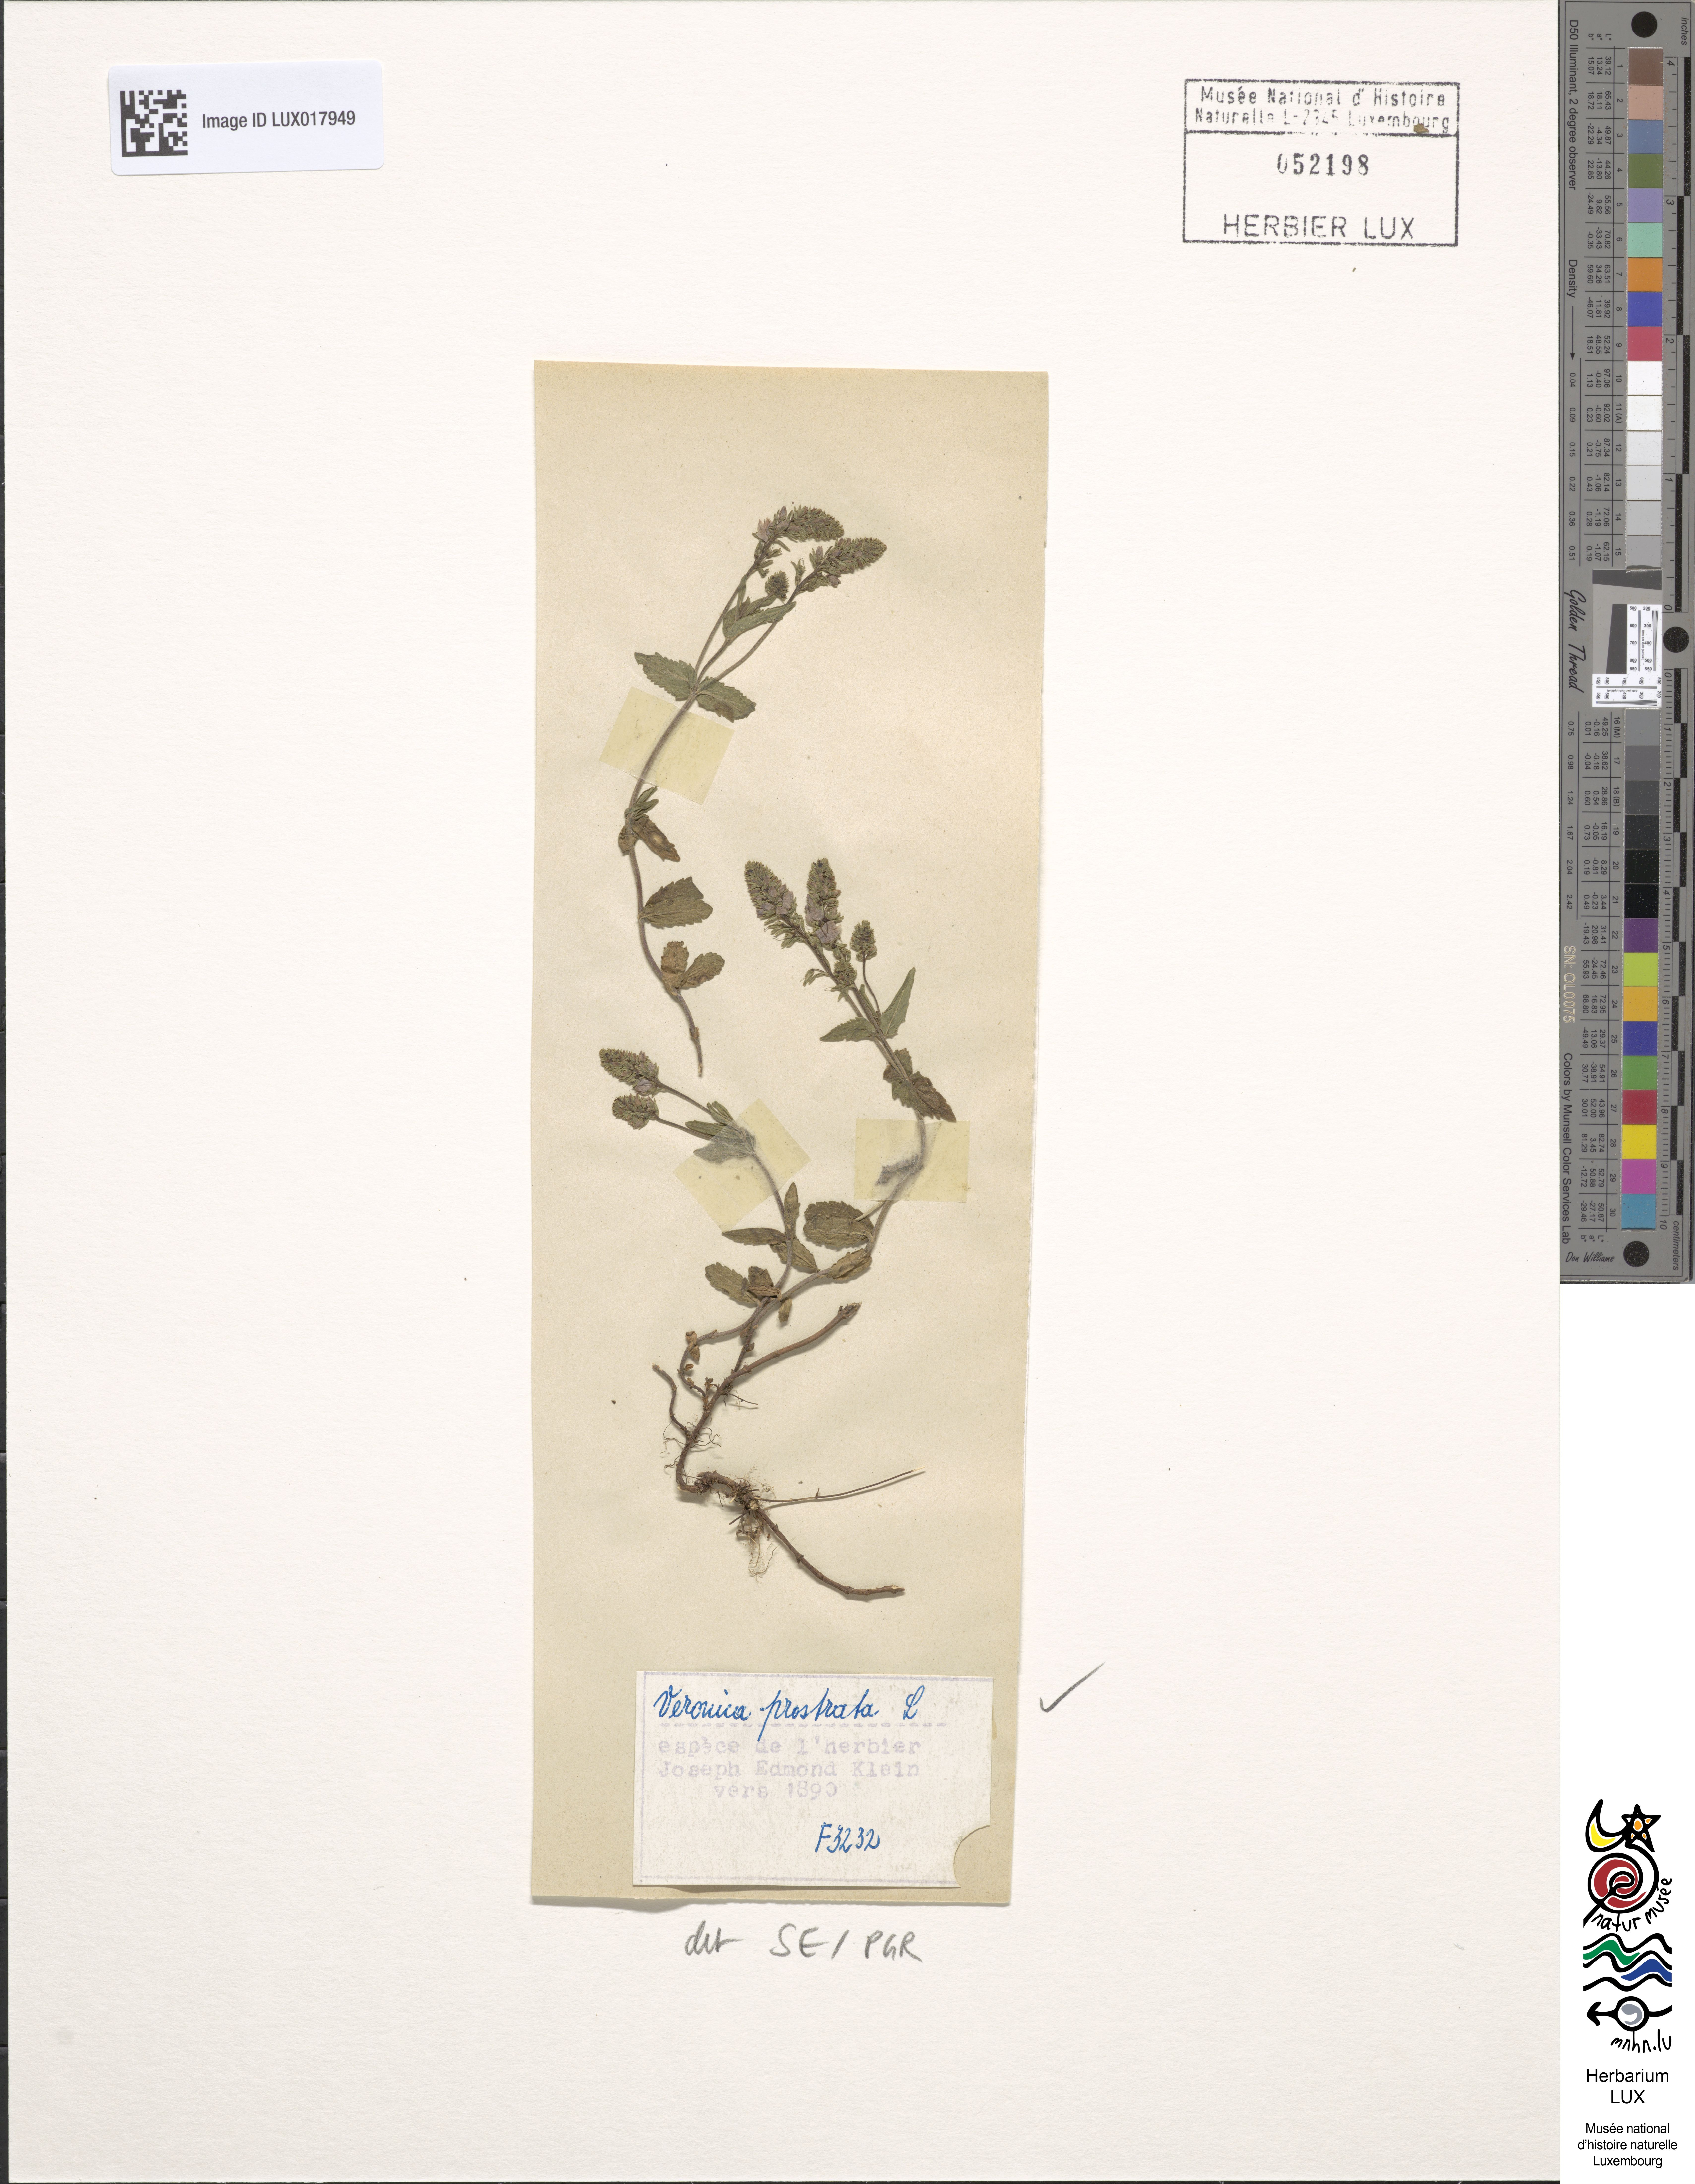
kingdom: Plantae
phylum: Tracheophyta
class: Magnoliopsida
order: Lamiales
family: Plantaginaceae
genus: Veronica
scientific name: Veronica prostrata
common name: Prostrate speedwell
